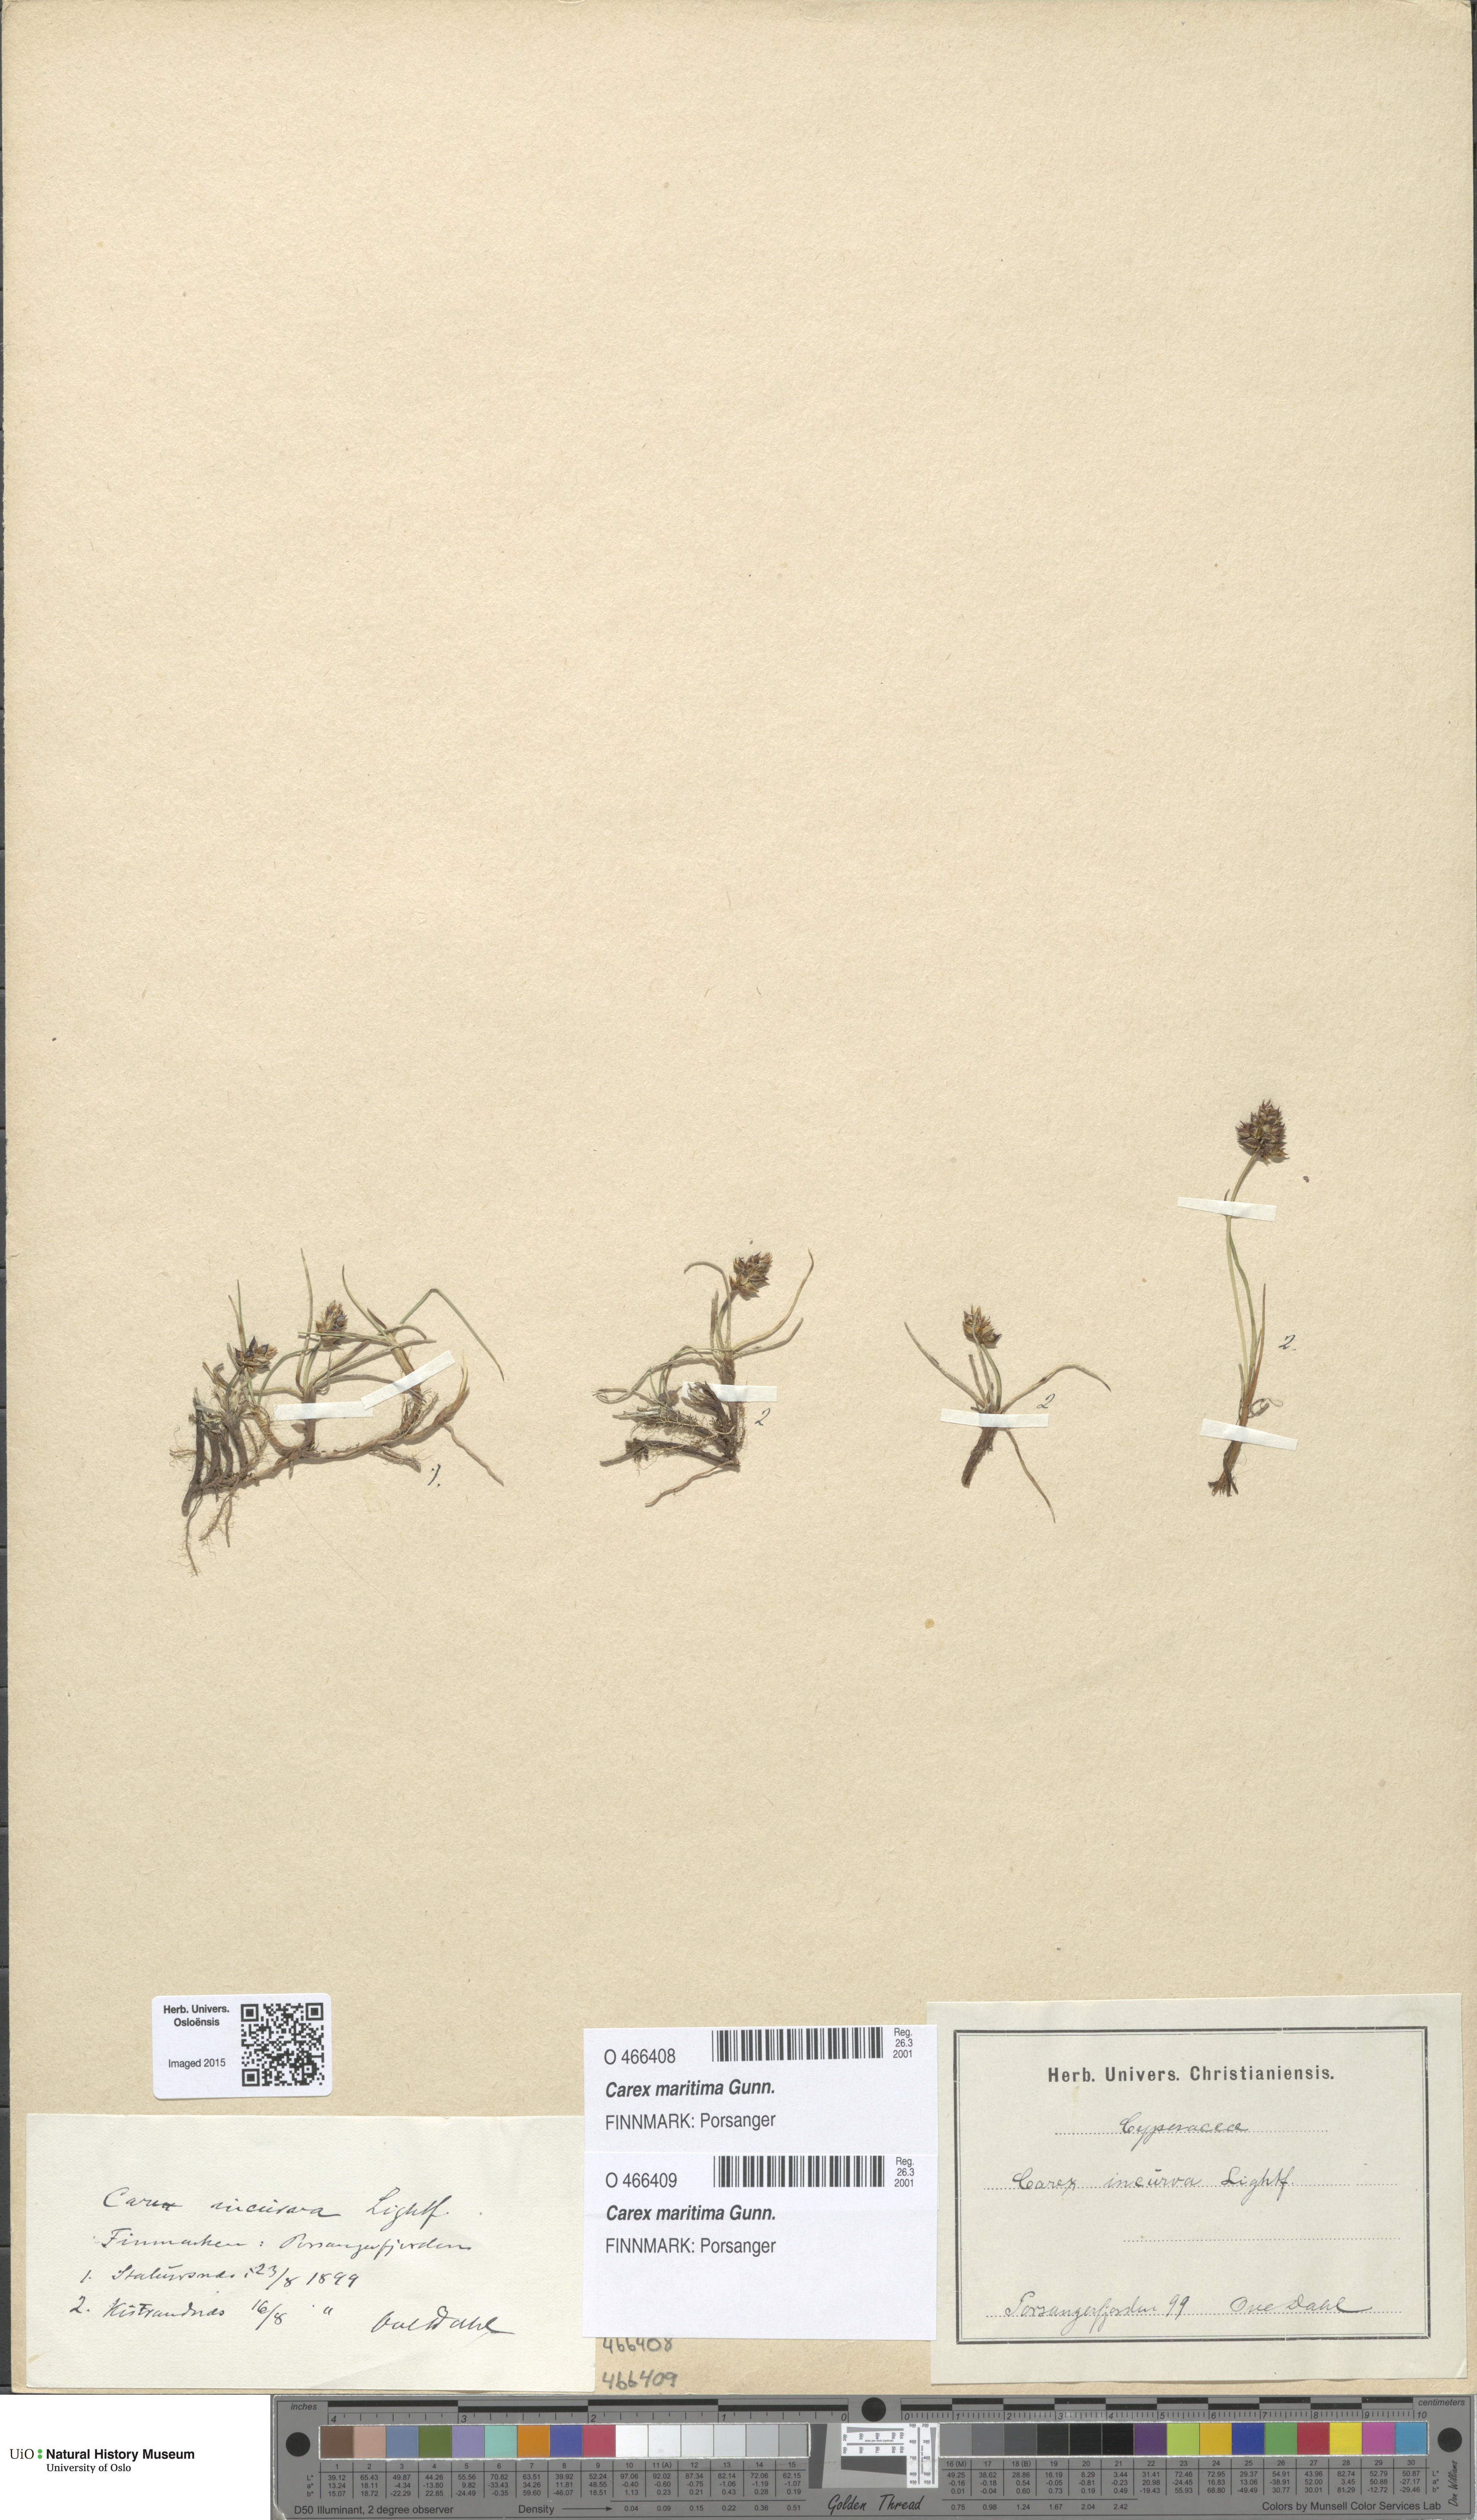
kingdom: Plantae
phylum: Tracheophyta
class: Liliopsida
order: Poales
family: Cyperaceae
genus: Carex
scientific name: Carex maritima
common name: Curved sedge
